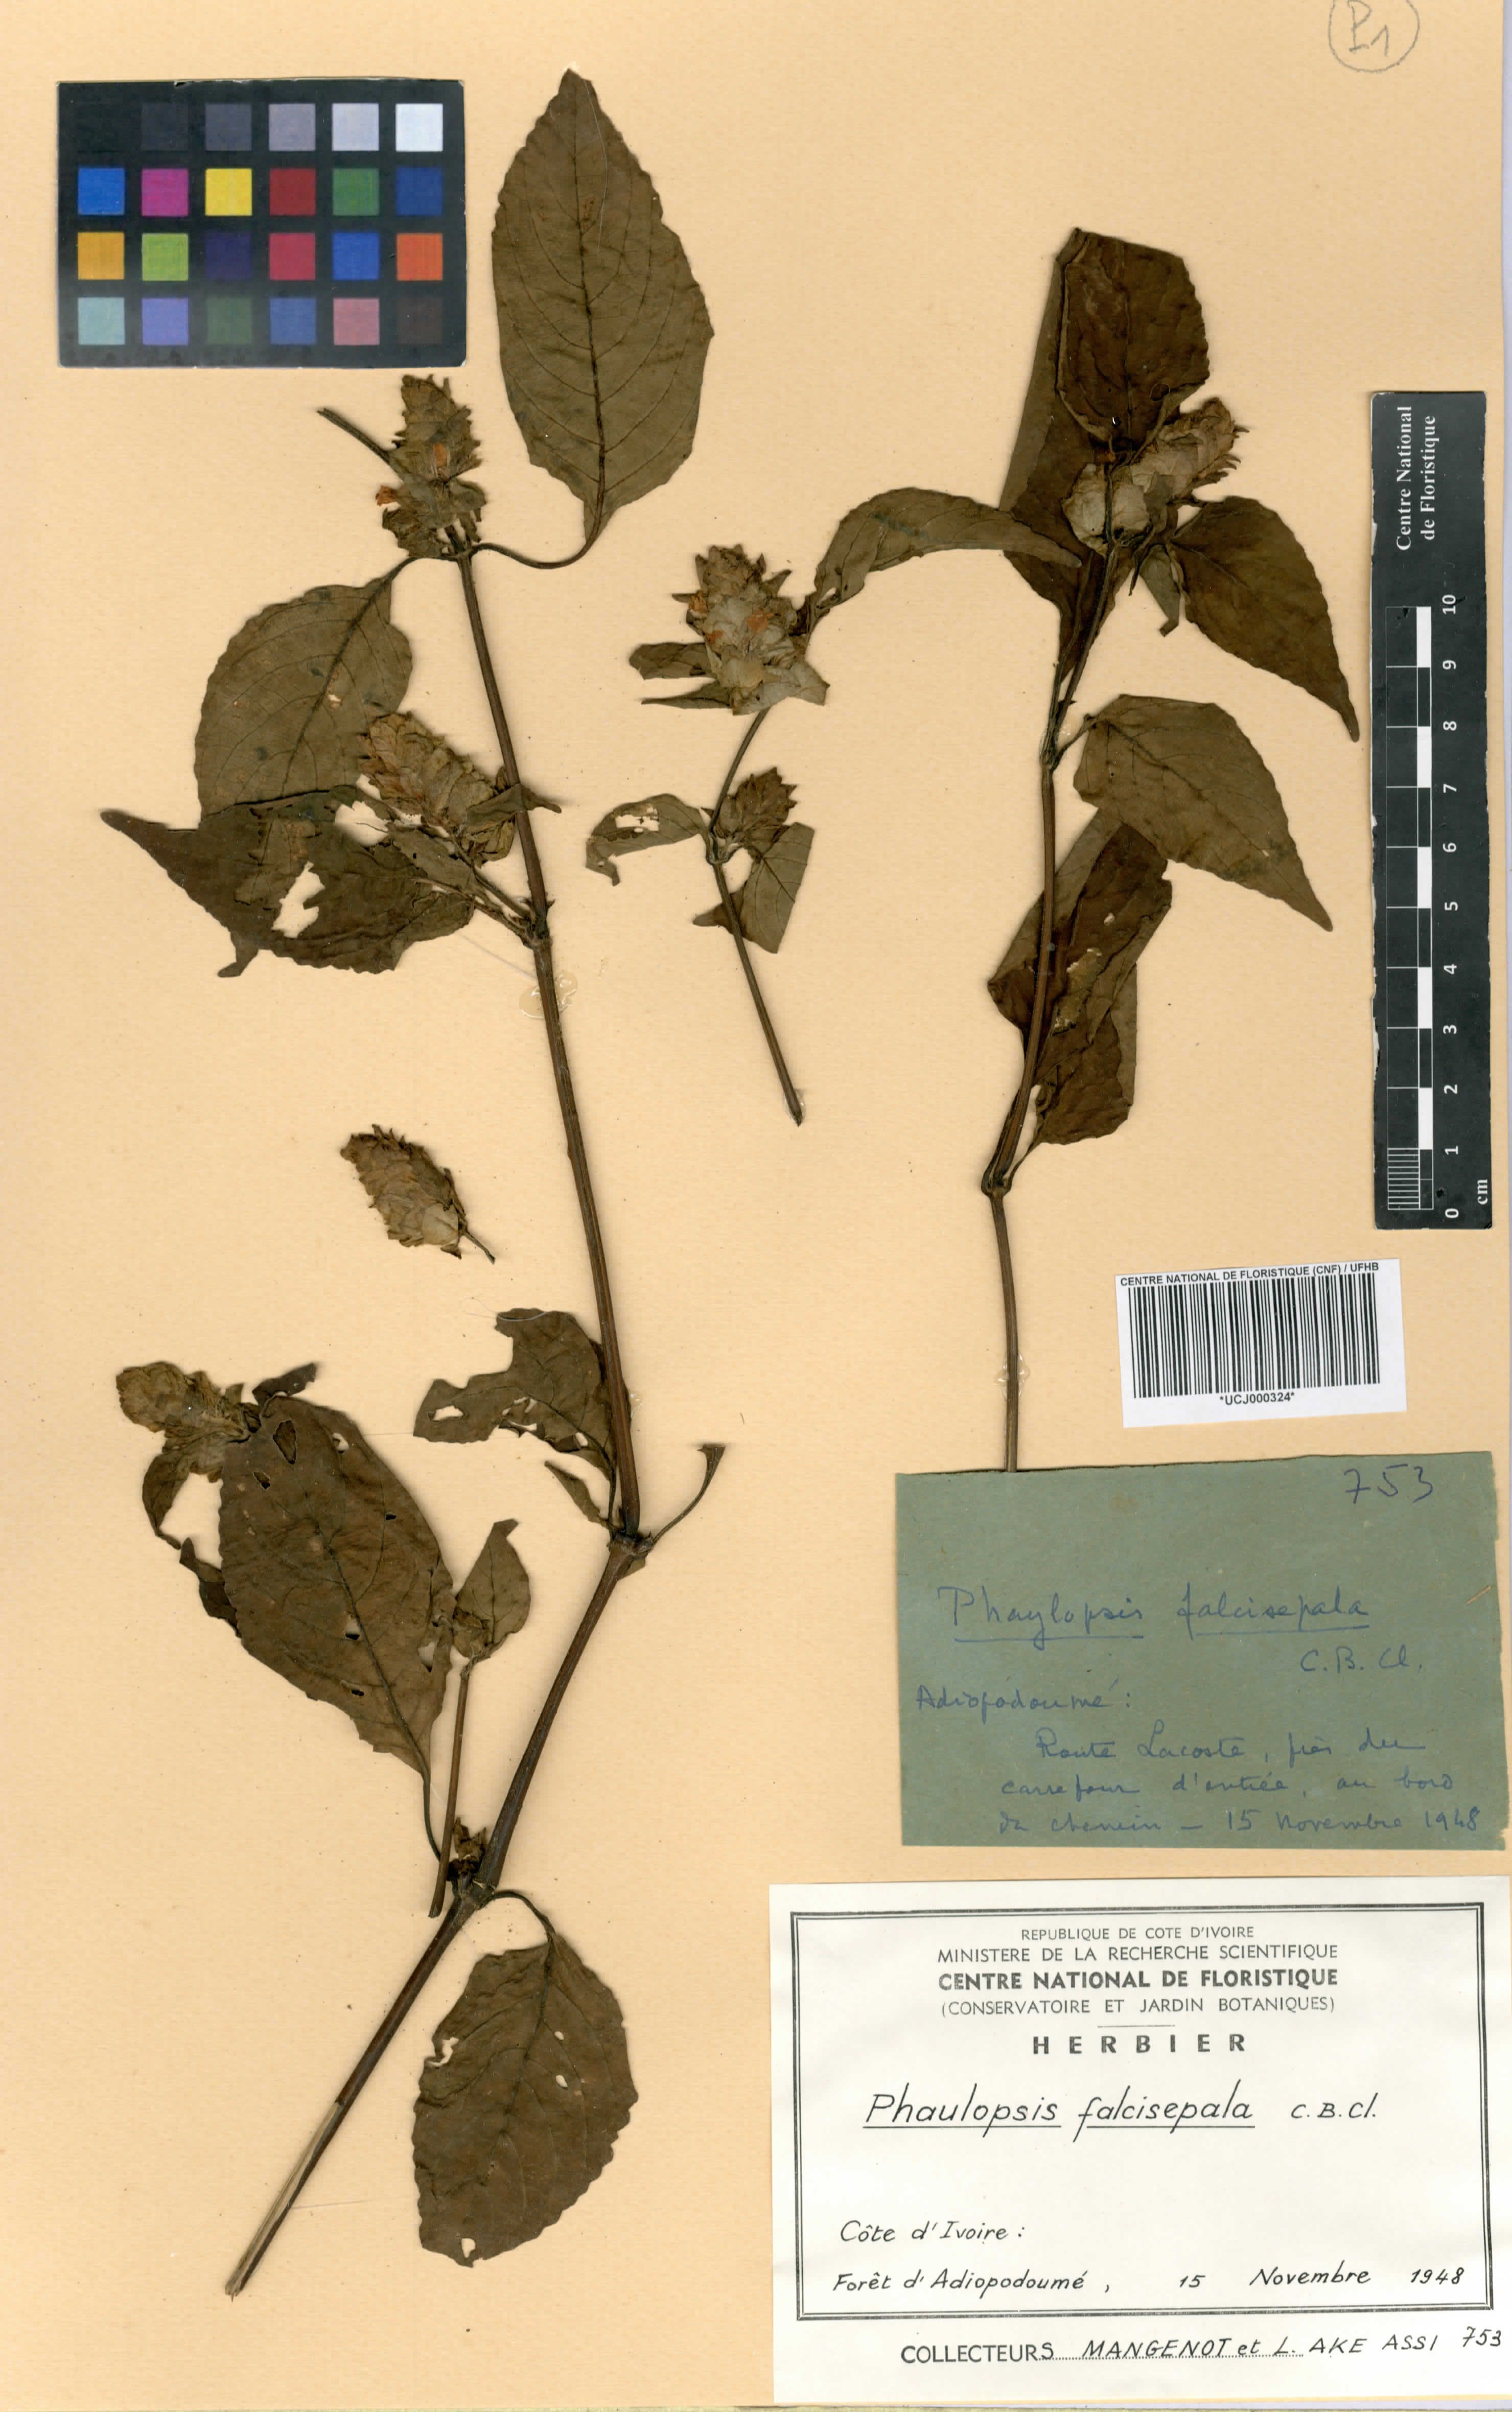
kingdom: Plantae
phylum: Tracheophyta
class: Magnoliopsida
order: Lamiales
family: Acanthaceae
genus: Phaulopsis
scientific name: Phaulopsis ciliata
